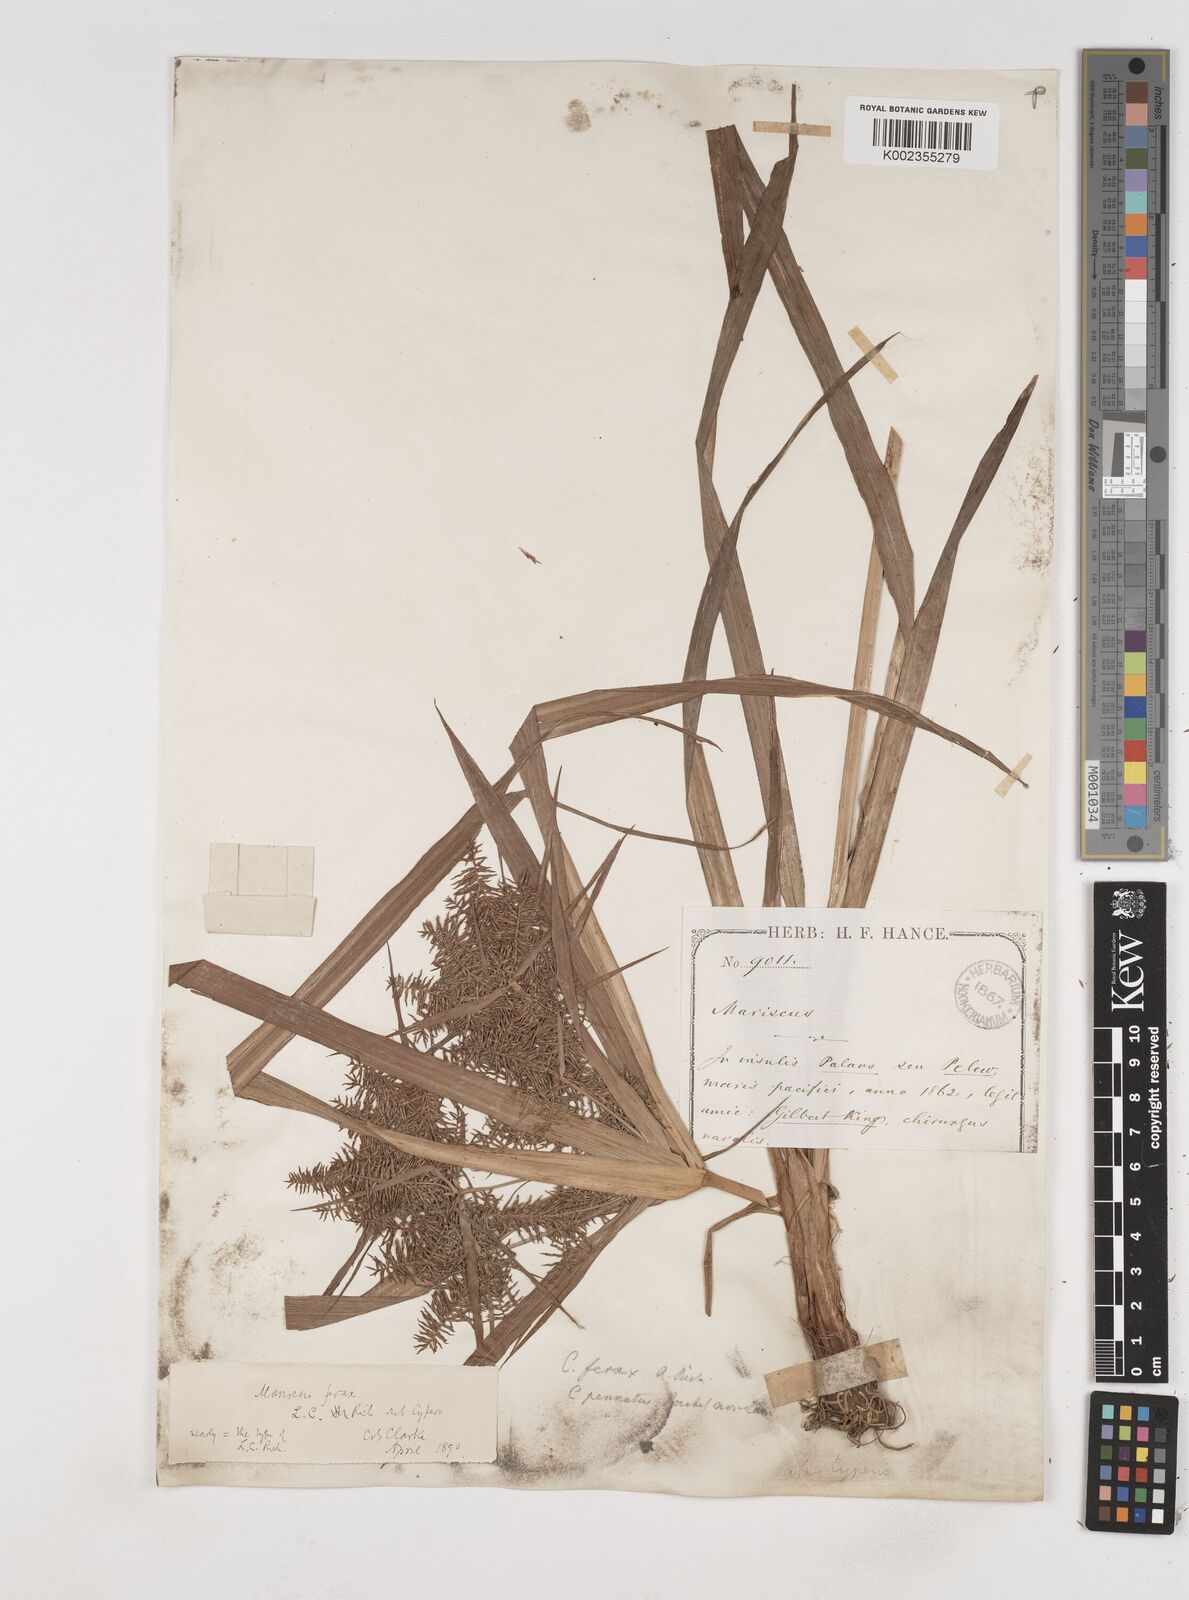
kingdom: Plantae
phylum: Tracheophyta
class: Liliopsida
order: Poales
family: Cyperaceae
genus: Cyperus
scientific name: Cyperus odoratus
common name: Fragrant flatsedge
